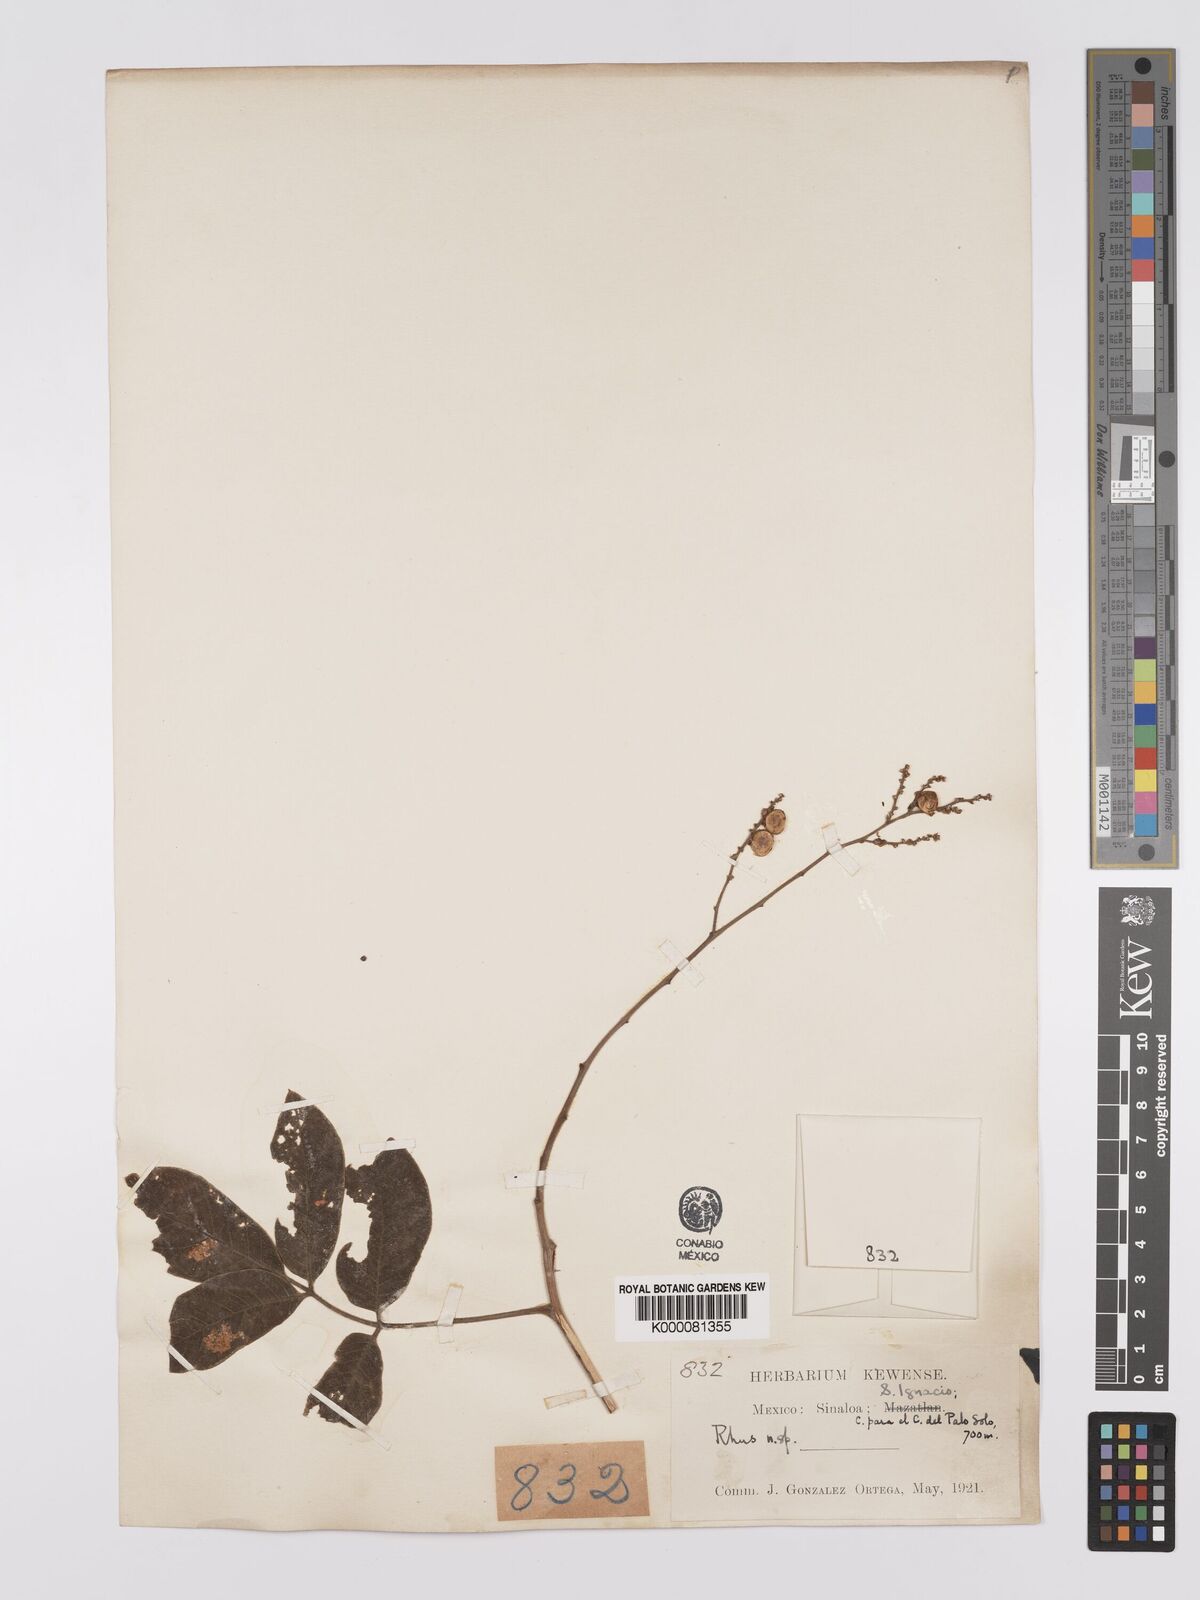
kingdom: Plantae
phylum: Tracheophyta
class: Magnoliopsida
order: Sapindales
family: Anacardiaceae
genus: Rhus
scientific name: Rhus terebinthifolia
